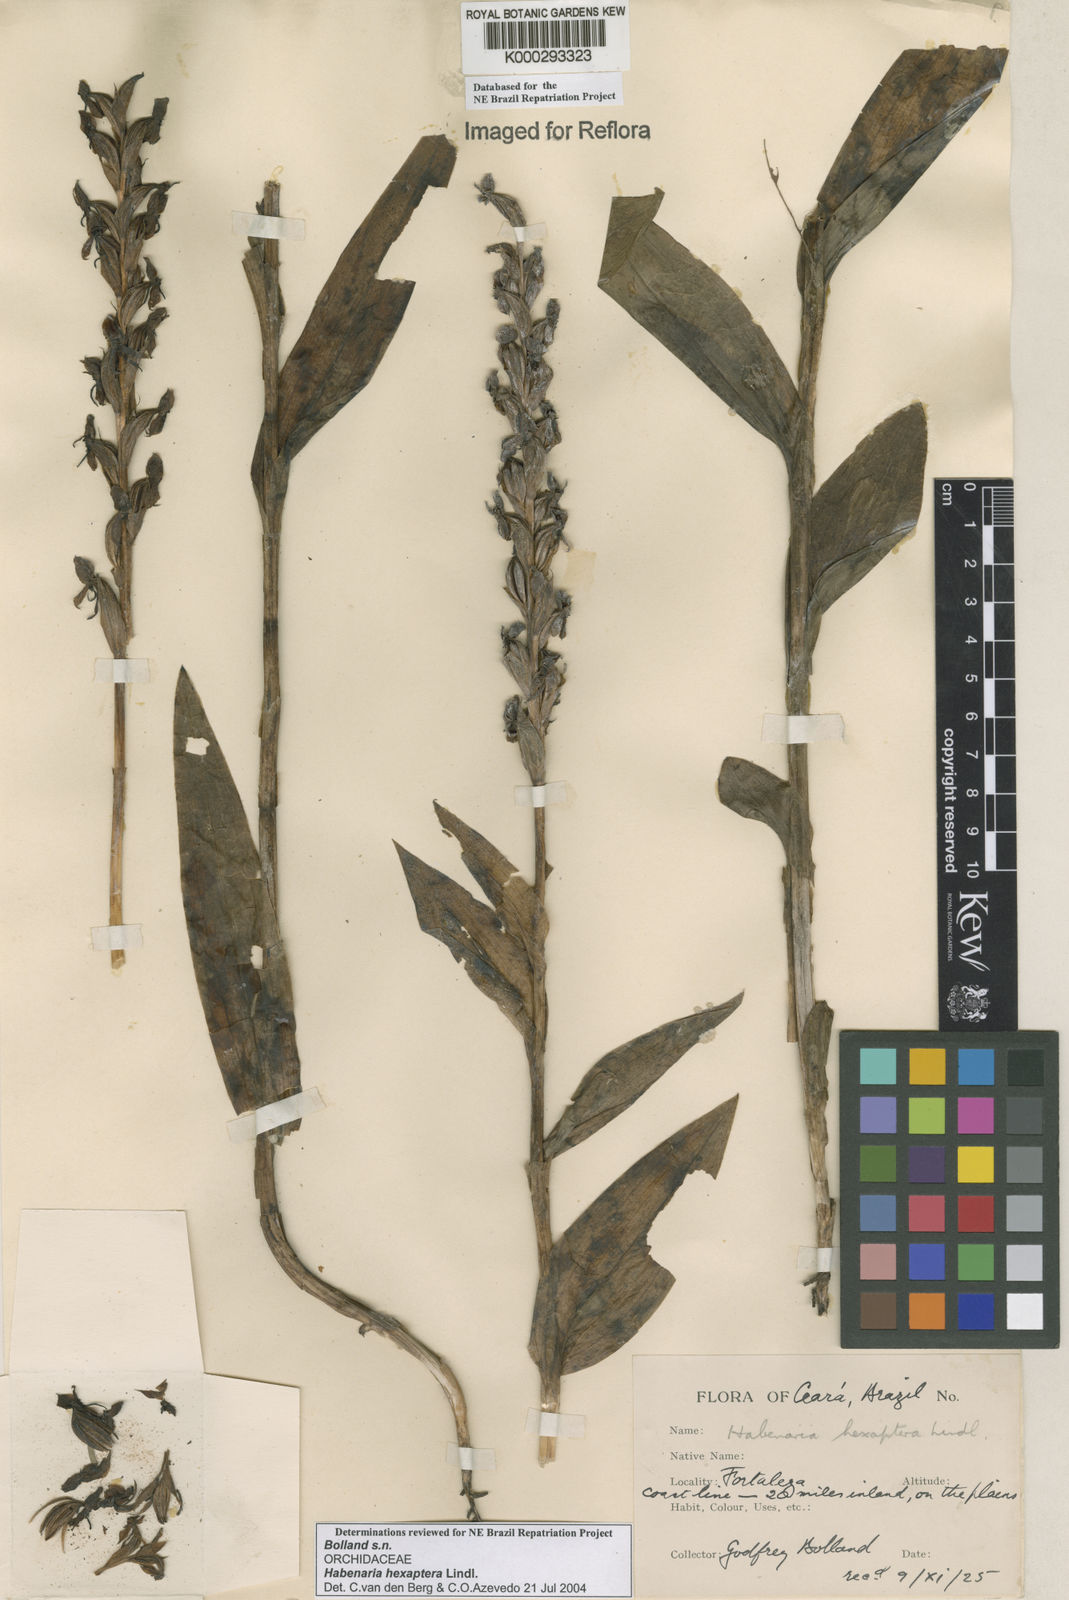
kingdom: Plantae
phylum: Tracheophyta
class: Liliopsida
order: Asparagales
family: Orchidaceae
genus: Habenaria
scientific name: Habenaria hexaptera
